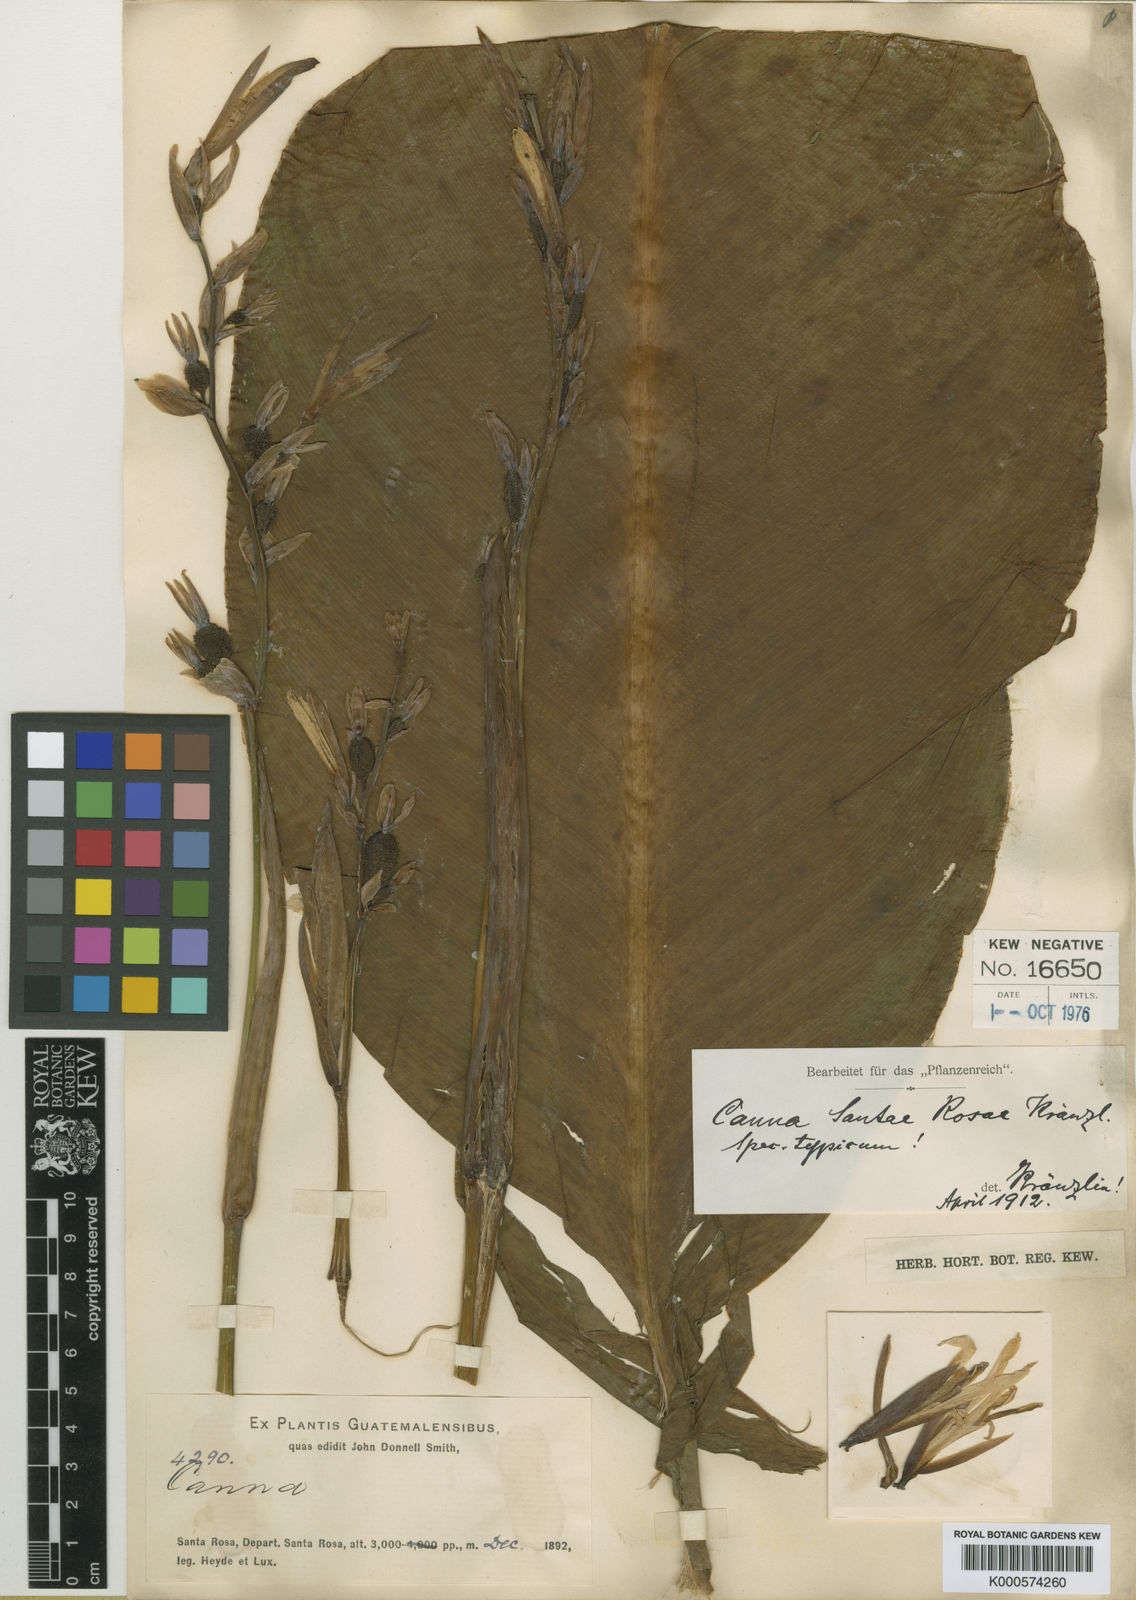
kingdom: Plantae
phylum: Tracheophyta
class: Liliopsida
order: Zingiberales
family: Cannaceae
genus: Canna
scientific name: Canna indica
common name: Indian shot
